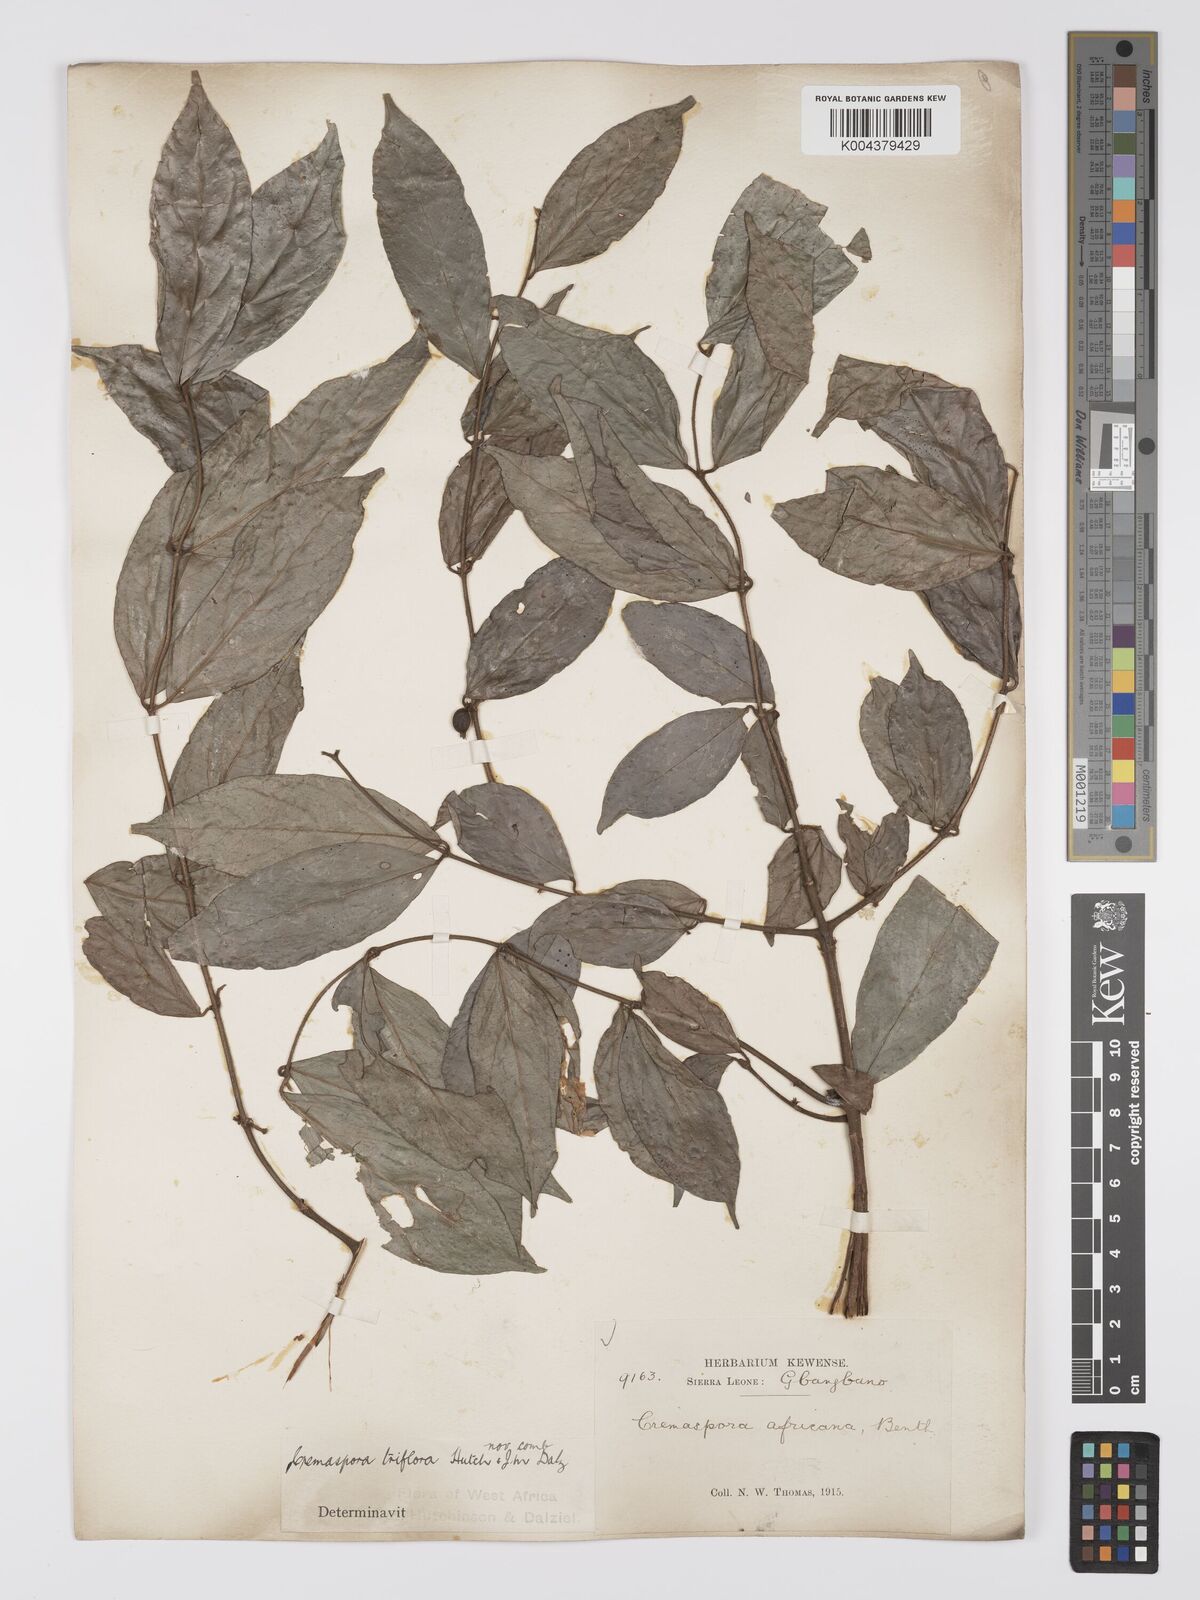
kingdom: Plantae
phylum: Tracheophyta
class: Magnoliopsida
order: Gentianales
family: Rubiaceae
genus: Cremaspora
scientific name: Cremaspora triflora
